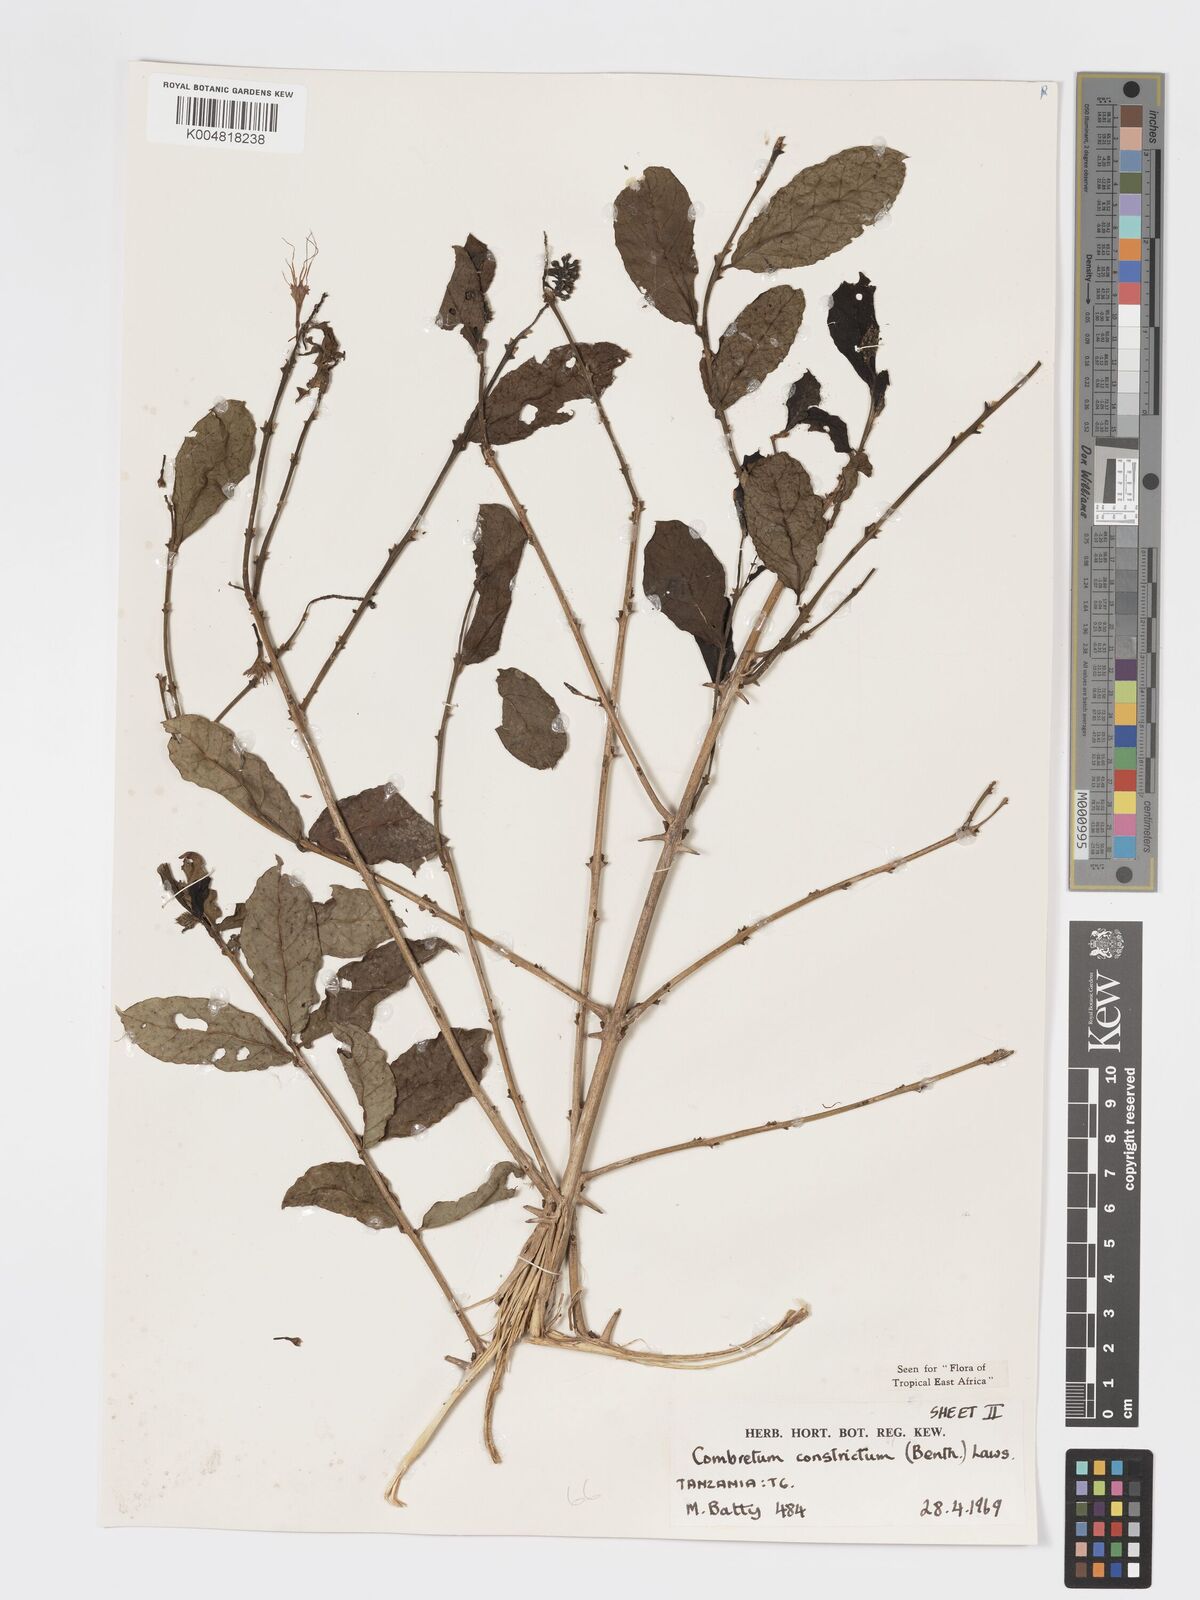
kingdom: Plantae
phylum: Tracheophyta
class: Magnoliopsida
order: Myrtales
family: Combretaceae
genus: Combretum
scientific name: Combretum constrictum
